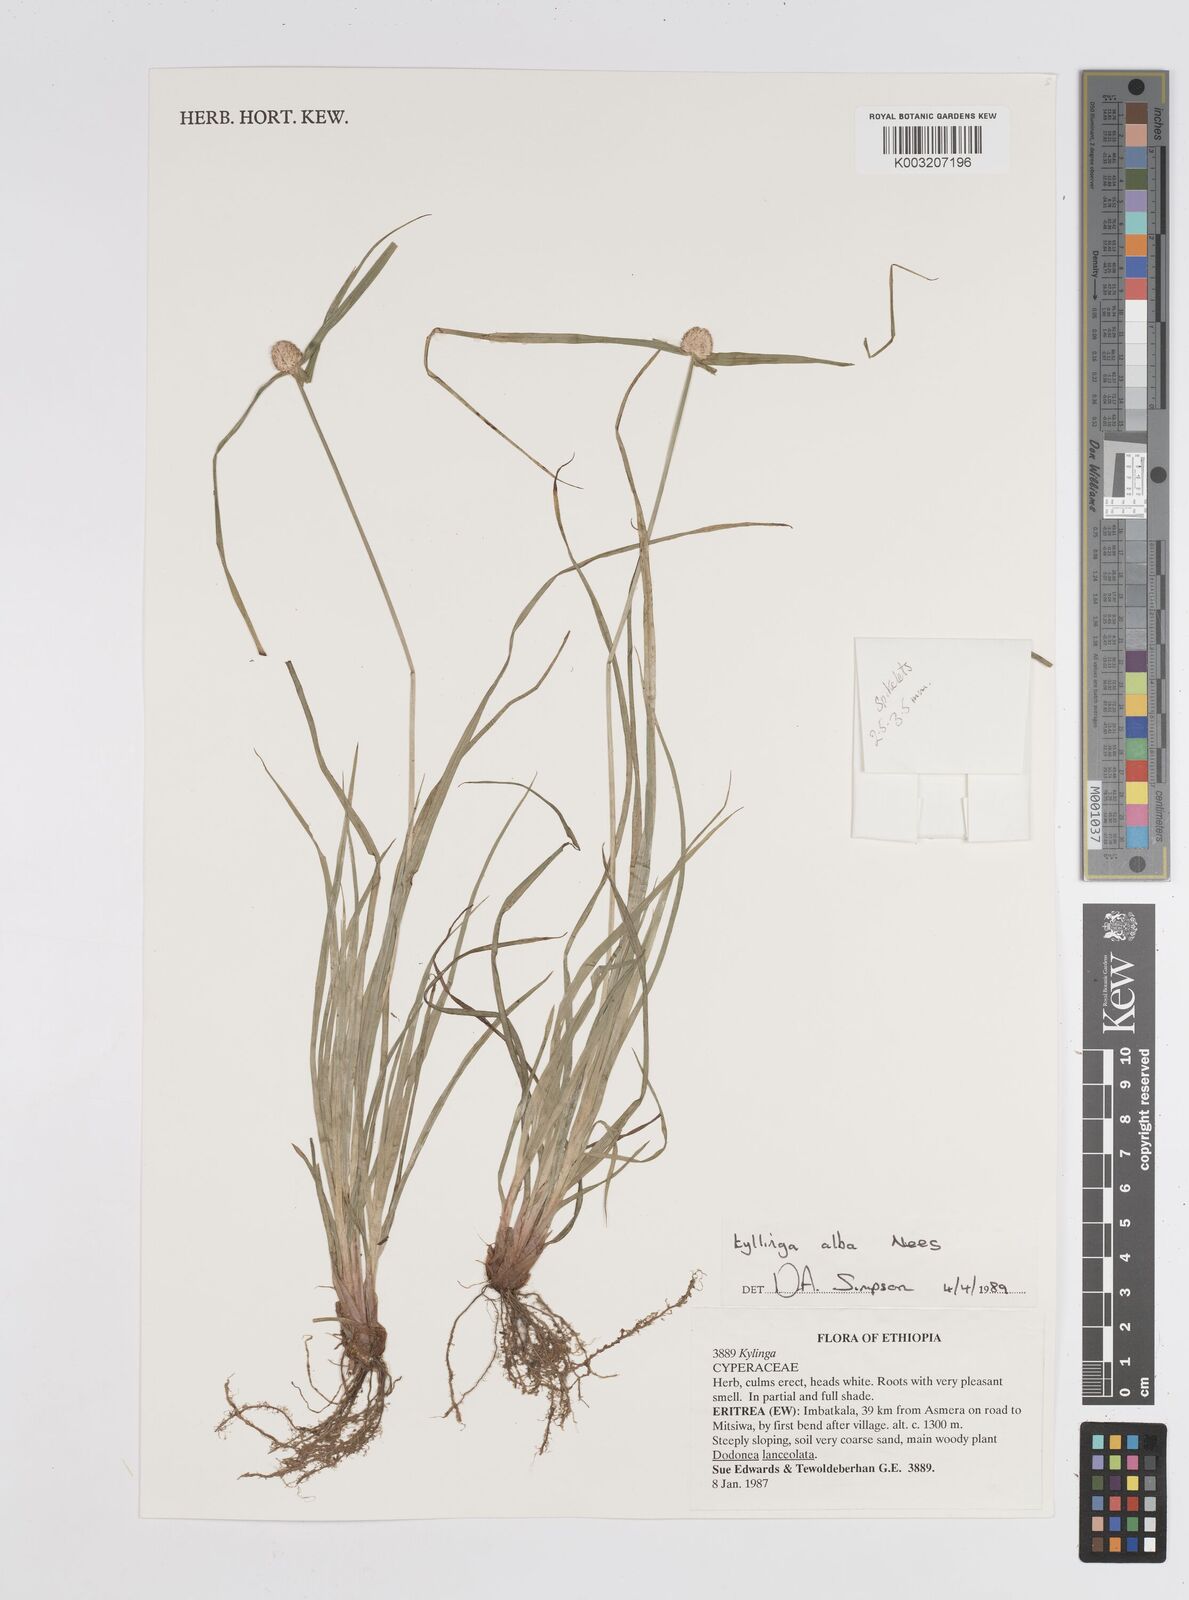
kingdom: Plantae
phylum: Tracheophyta
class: Liliopsida
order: Poales
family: Cyperaceae
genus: Cyperus
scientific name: Cyperus controversus
